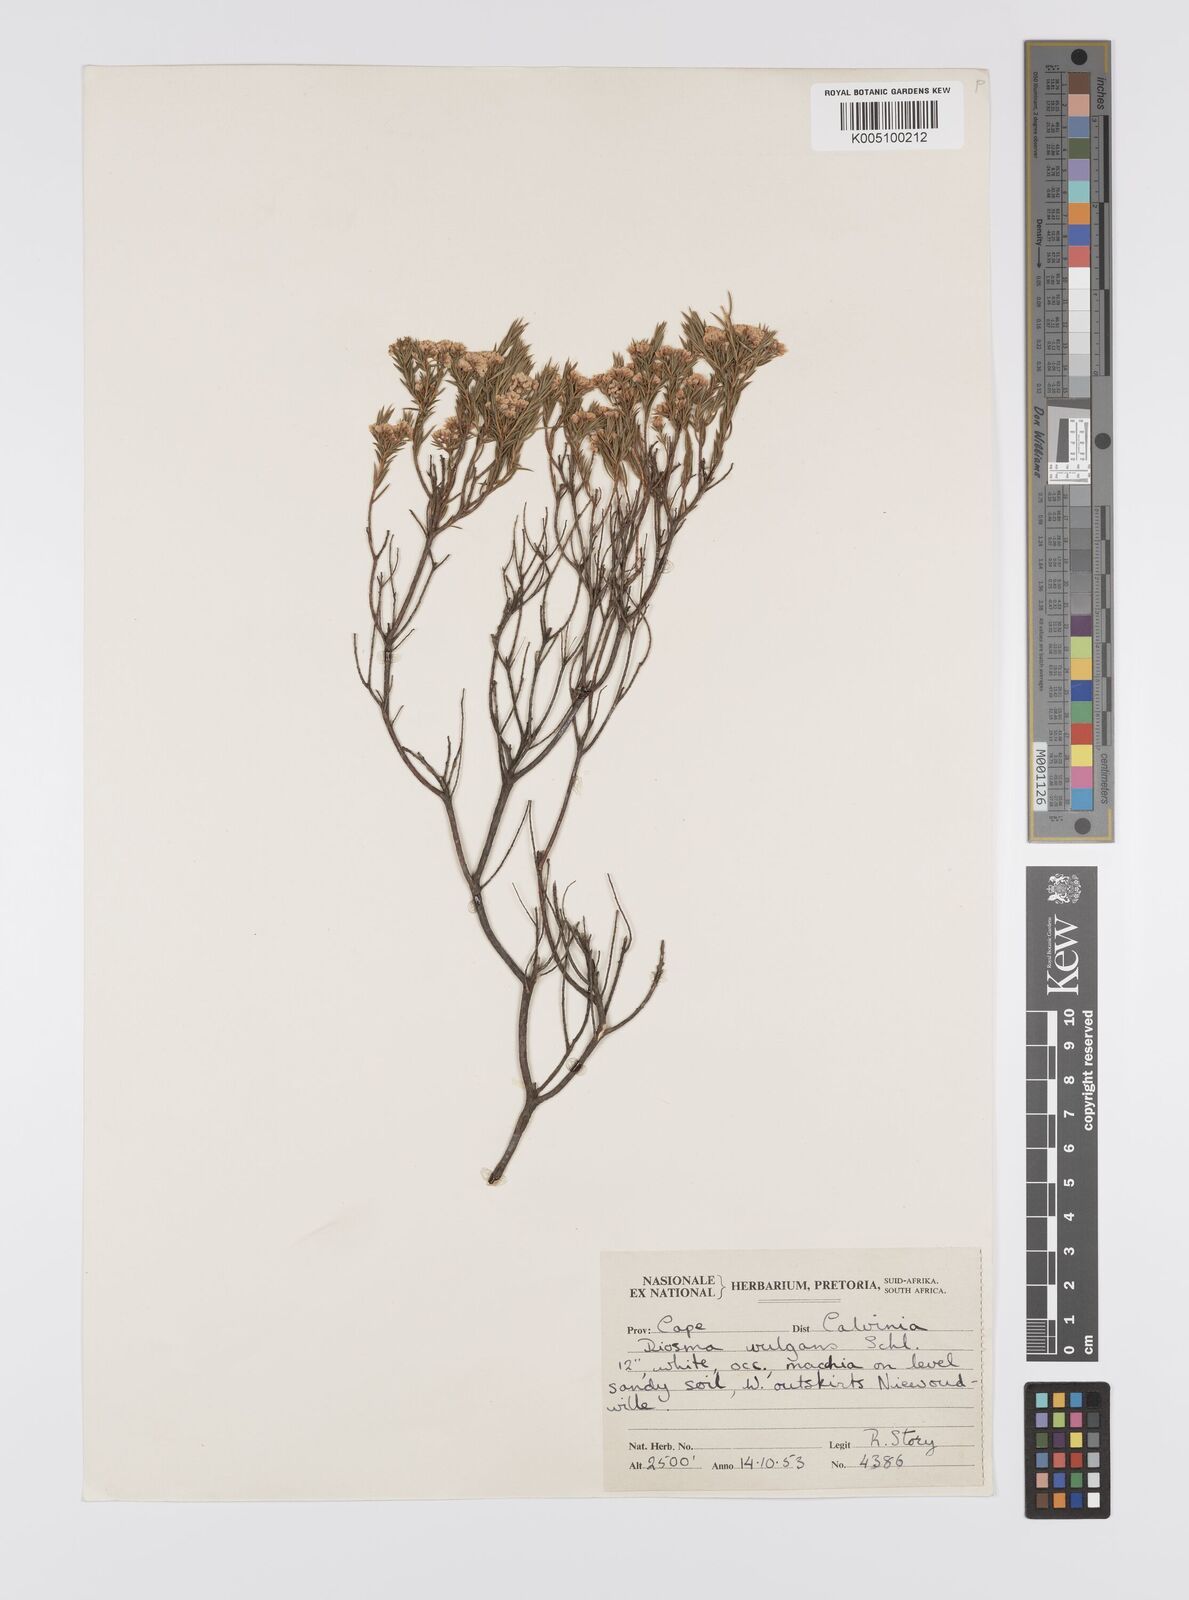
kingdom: Plantae
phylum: Tracheophyta
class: Magnoliopsida
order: Sapindales
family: Rutaceae
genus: Diosma
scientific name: Diosma hirsuta
